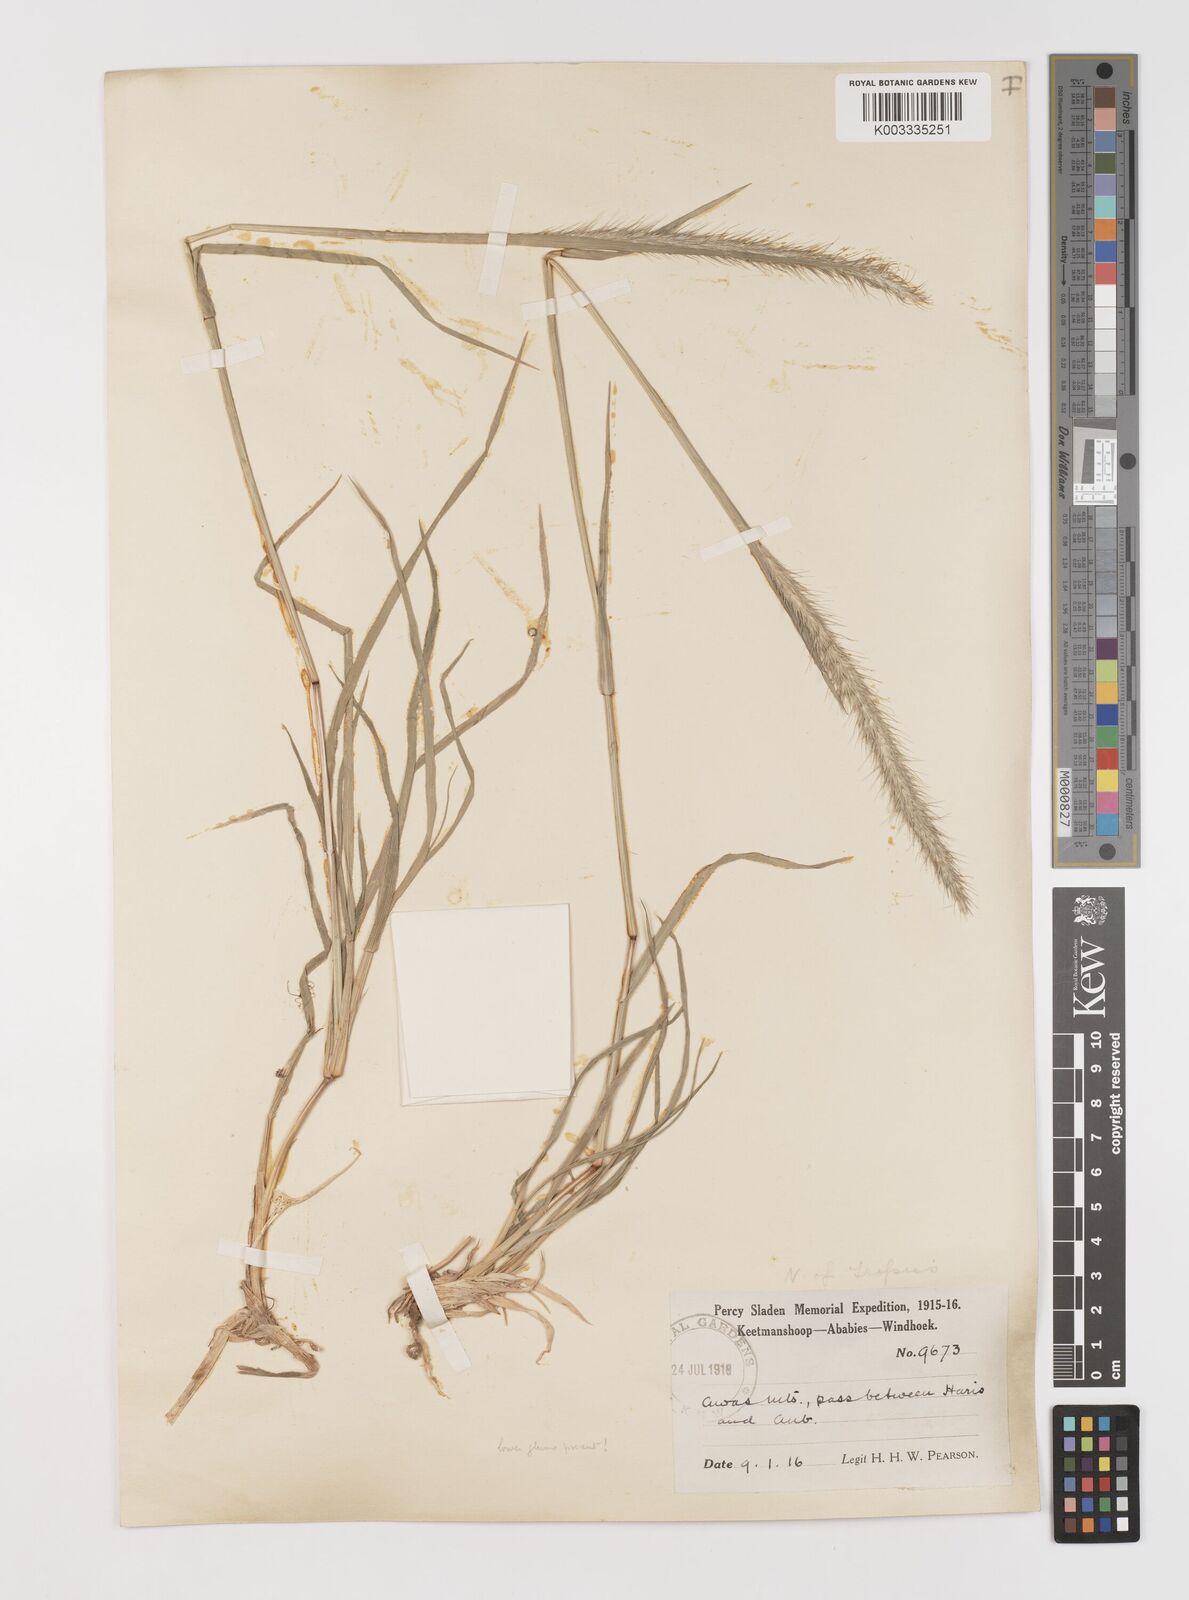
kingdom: Plantae
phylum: Tracheophyta
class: Liliopsida
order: Poales
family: Poaceae
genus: Monelytrum
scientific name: Monelytrum luederitzianum
